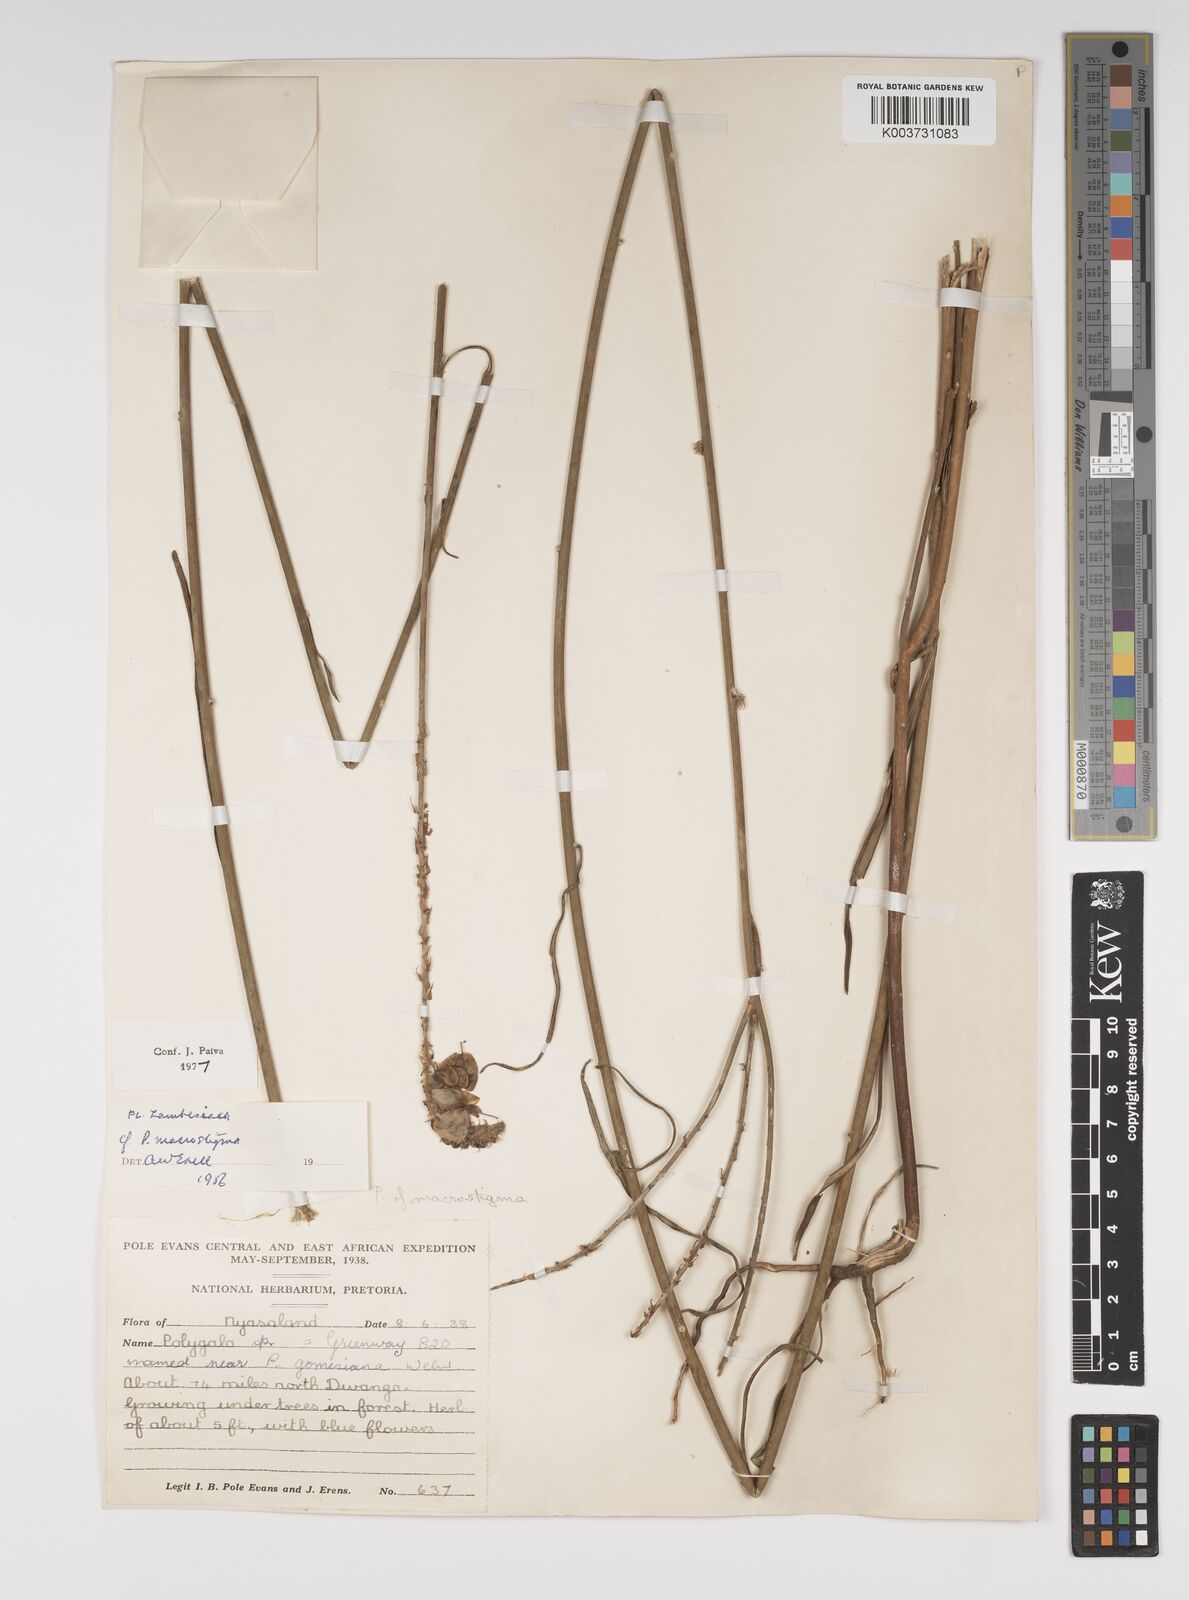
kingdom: Plantae
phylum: Tracheophyta
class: Magnoliopsida
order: Fabales
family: Polygalaceae
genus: Polygala
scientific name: Polygala macrostigma
